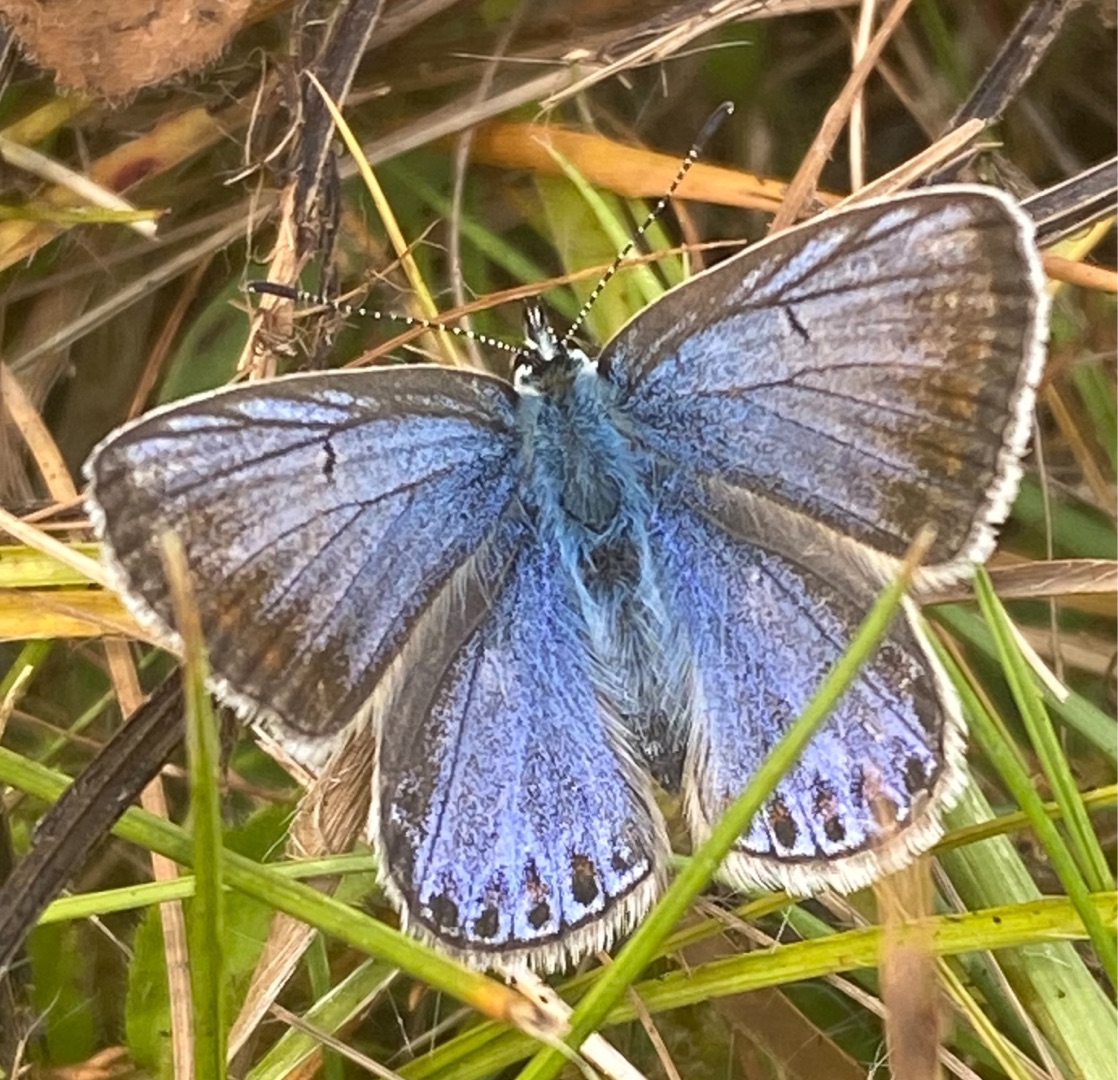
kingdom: Animalia
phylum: Arthropoda
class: Insecta
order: Lepidoptera
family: Lycaenidae
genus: Polyommatus
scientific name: Polyommatus icarus
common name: Almindelig blåfugl
